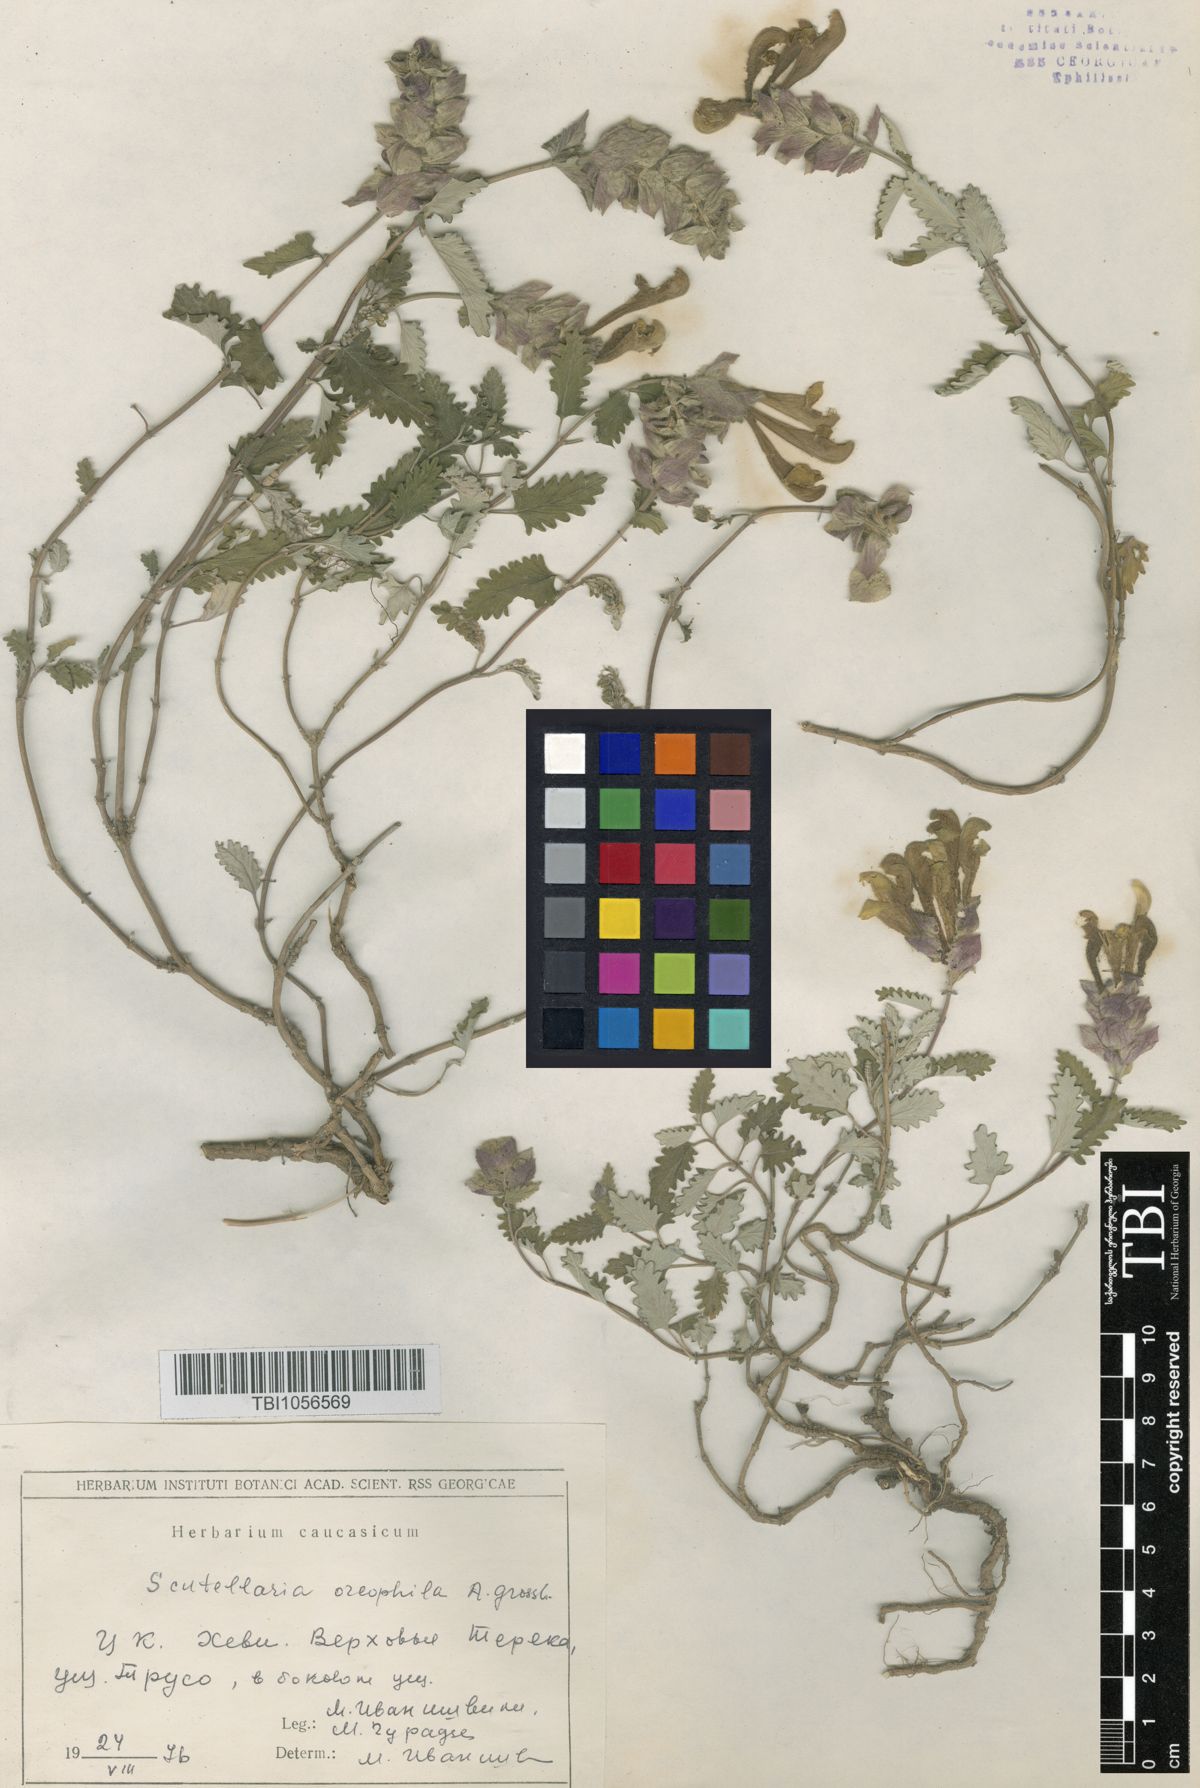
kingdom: Plantae
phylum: Tracheophyta
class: Magnoliopsida
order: Lamiales
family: Lamiaceae
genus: Scutellaria
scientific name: Scutellaria oreophila
